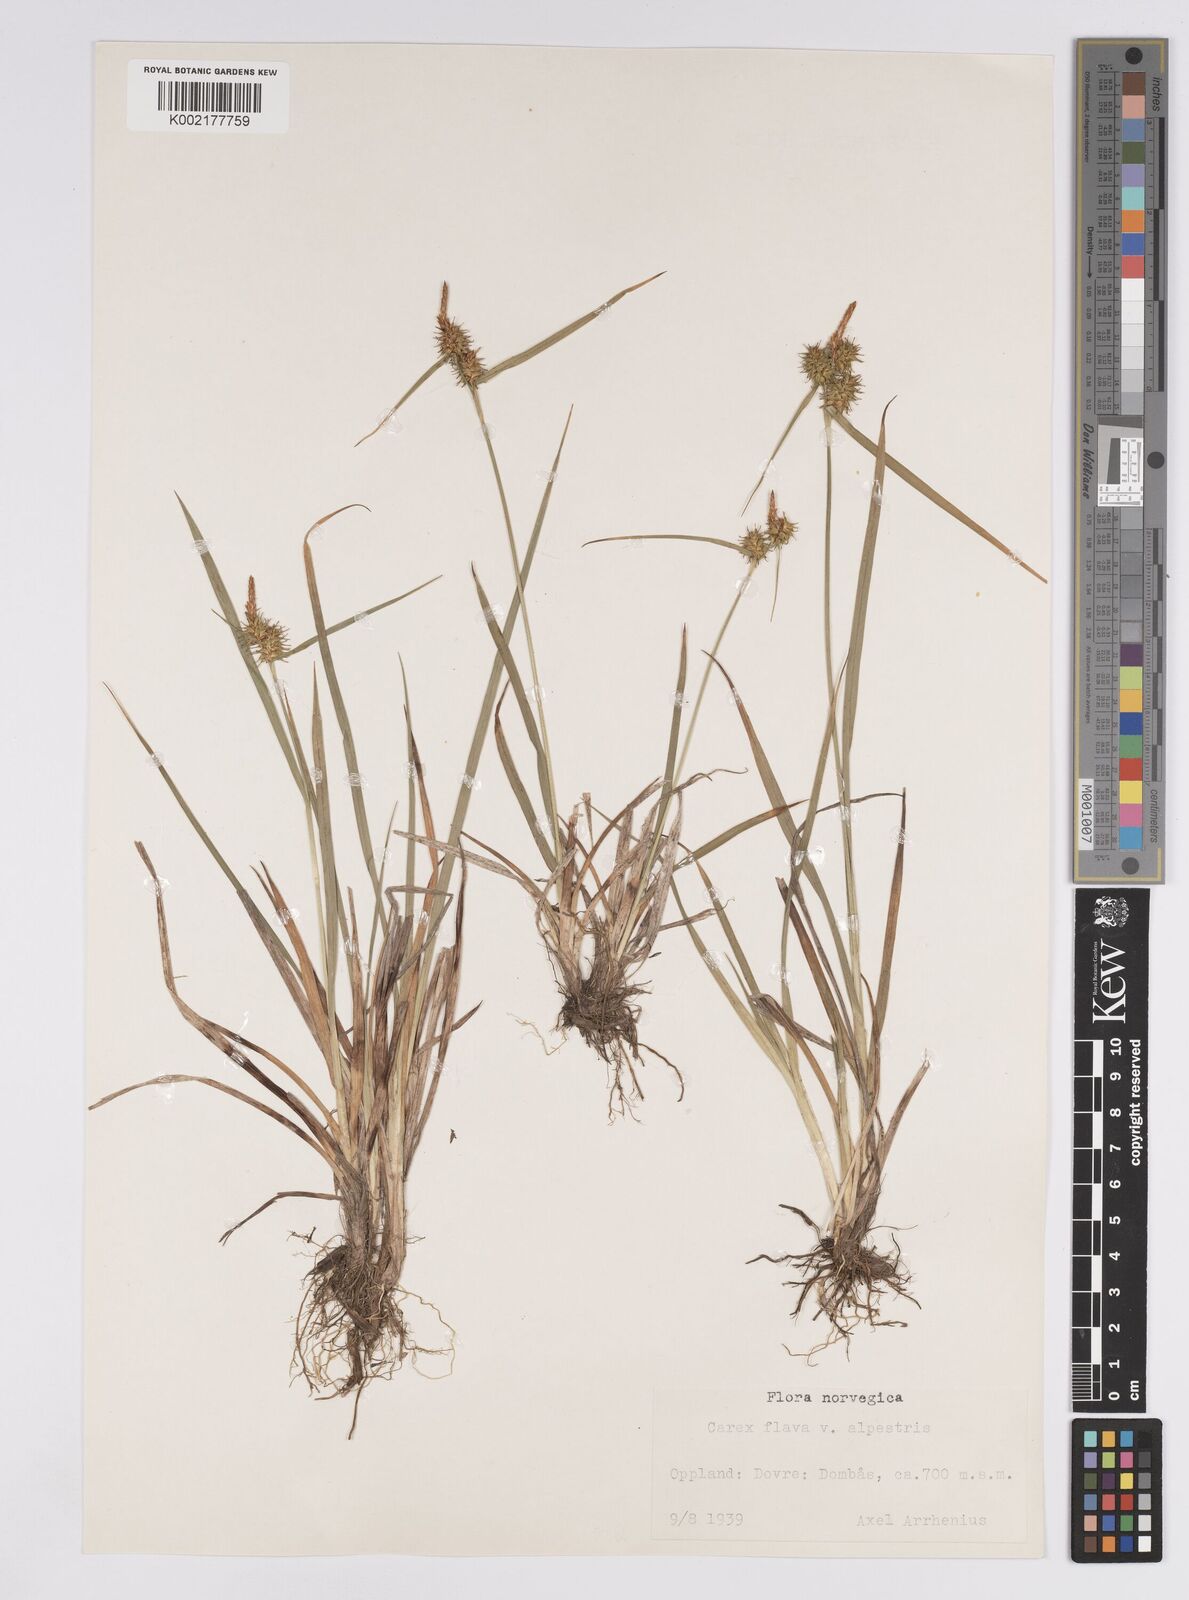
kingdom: Plantae
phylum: Tracheophyta
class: Liliopsida
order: Poales
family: Cyperaceae
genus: Carex
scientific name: Carex flava
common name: Large yellow-sedge
